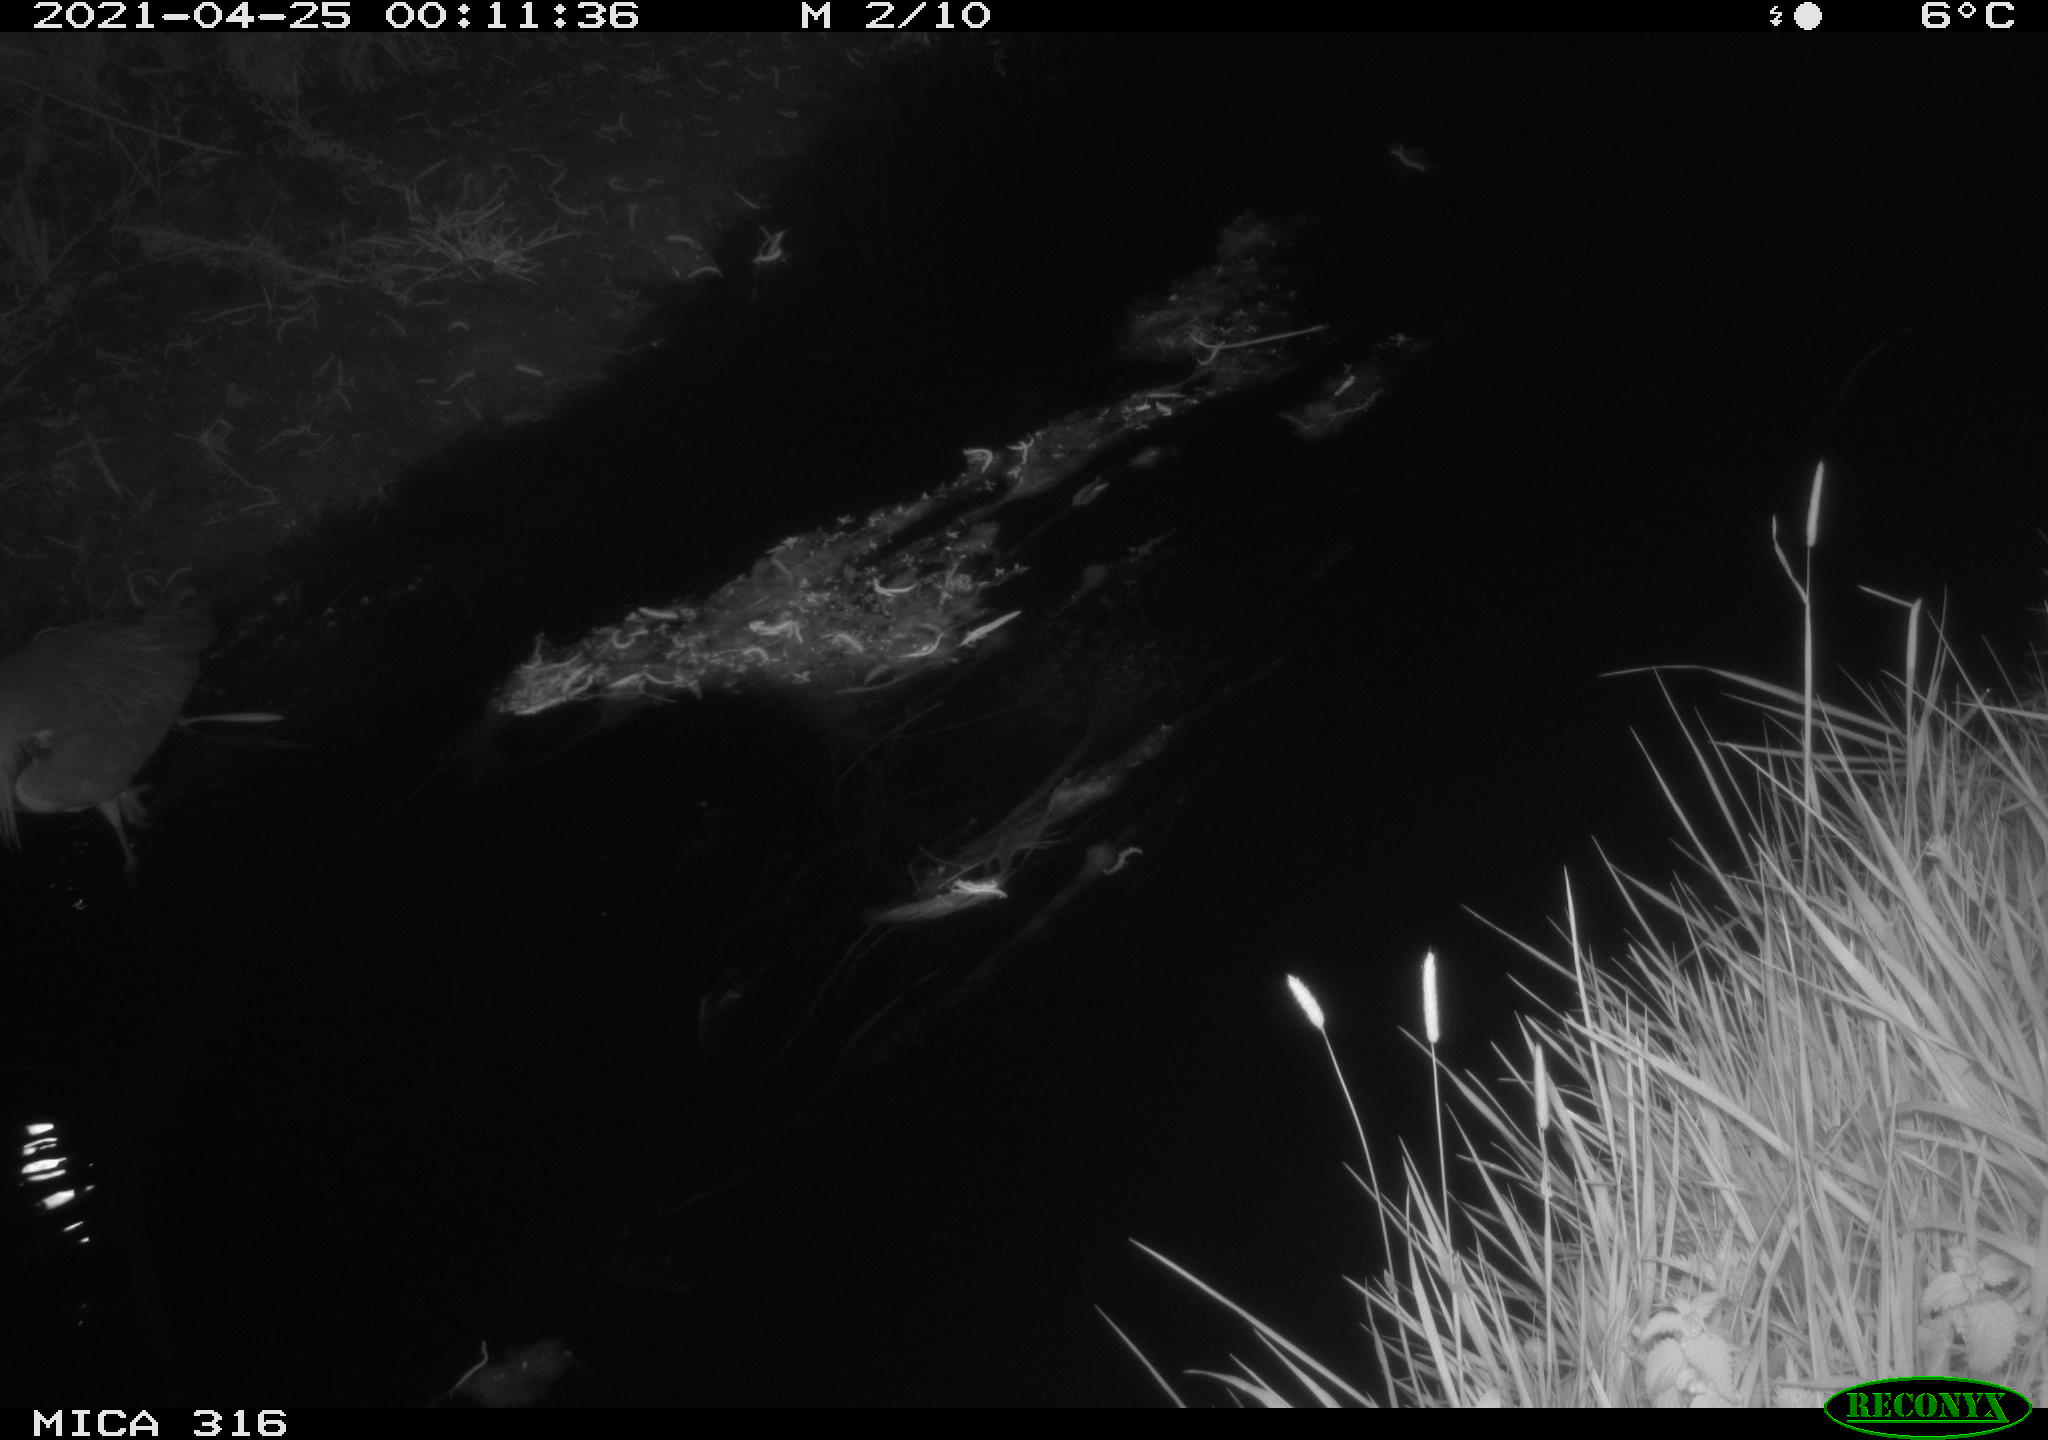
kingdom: Animalia
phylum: Chordata
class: Aves
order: Pelecaniformes
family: Ardeidae
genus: Ardea
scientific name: Ardea cinerea
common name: Grey heron
